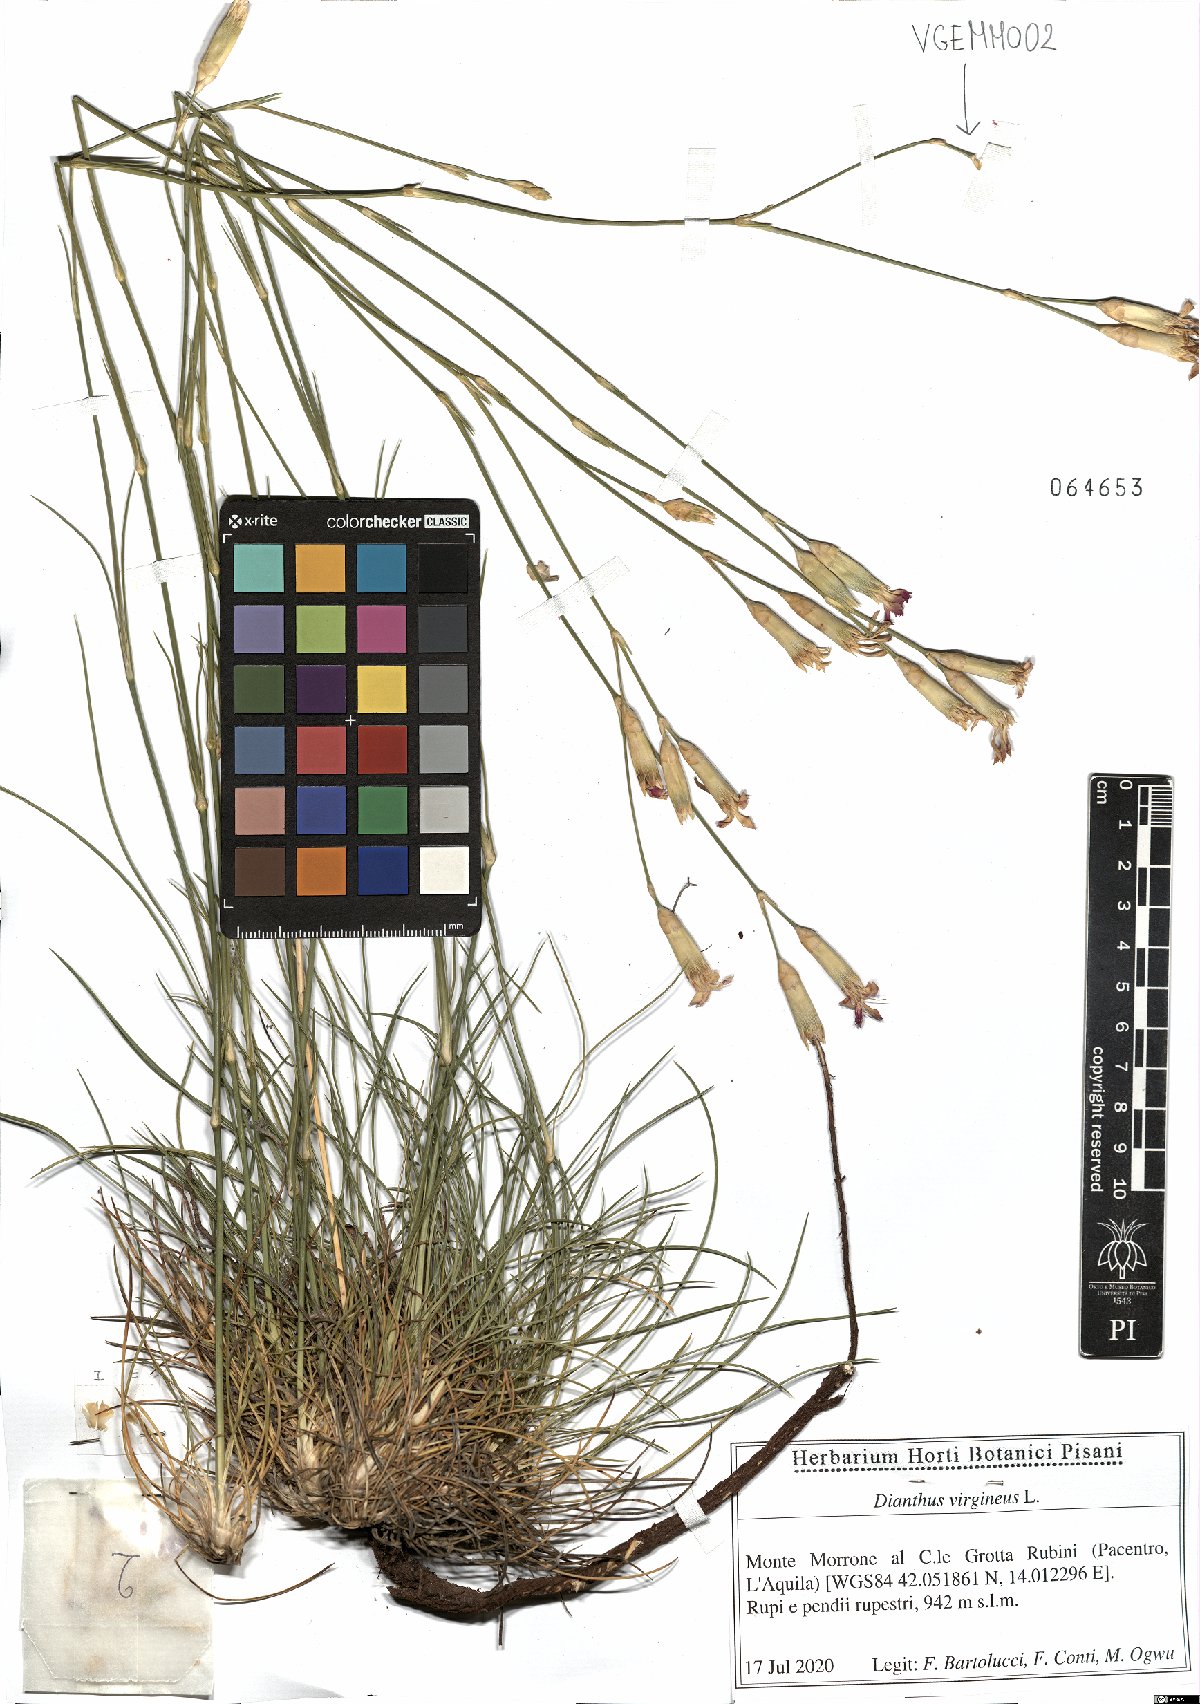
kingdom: Plantae
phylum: Tracheophyta
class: Magnoliopsida
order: Caryophyllales
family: Caryophyllaceae
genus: Dianthus
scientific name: Dianthus virgineus
